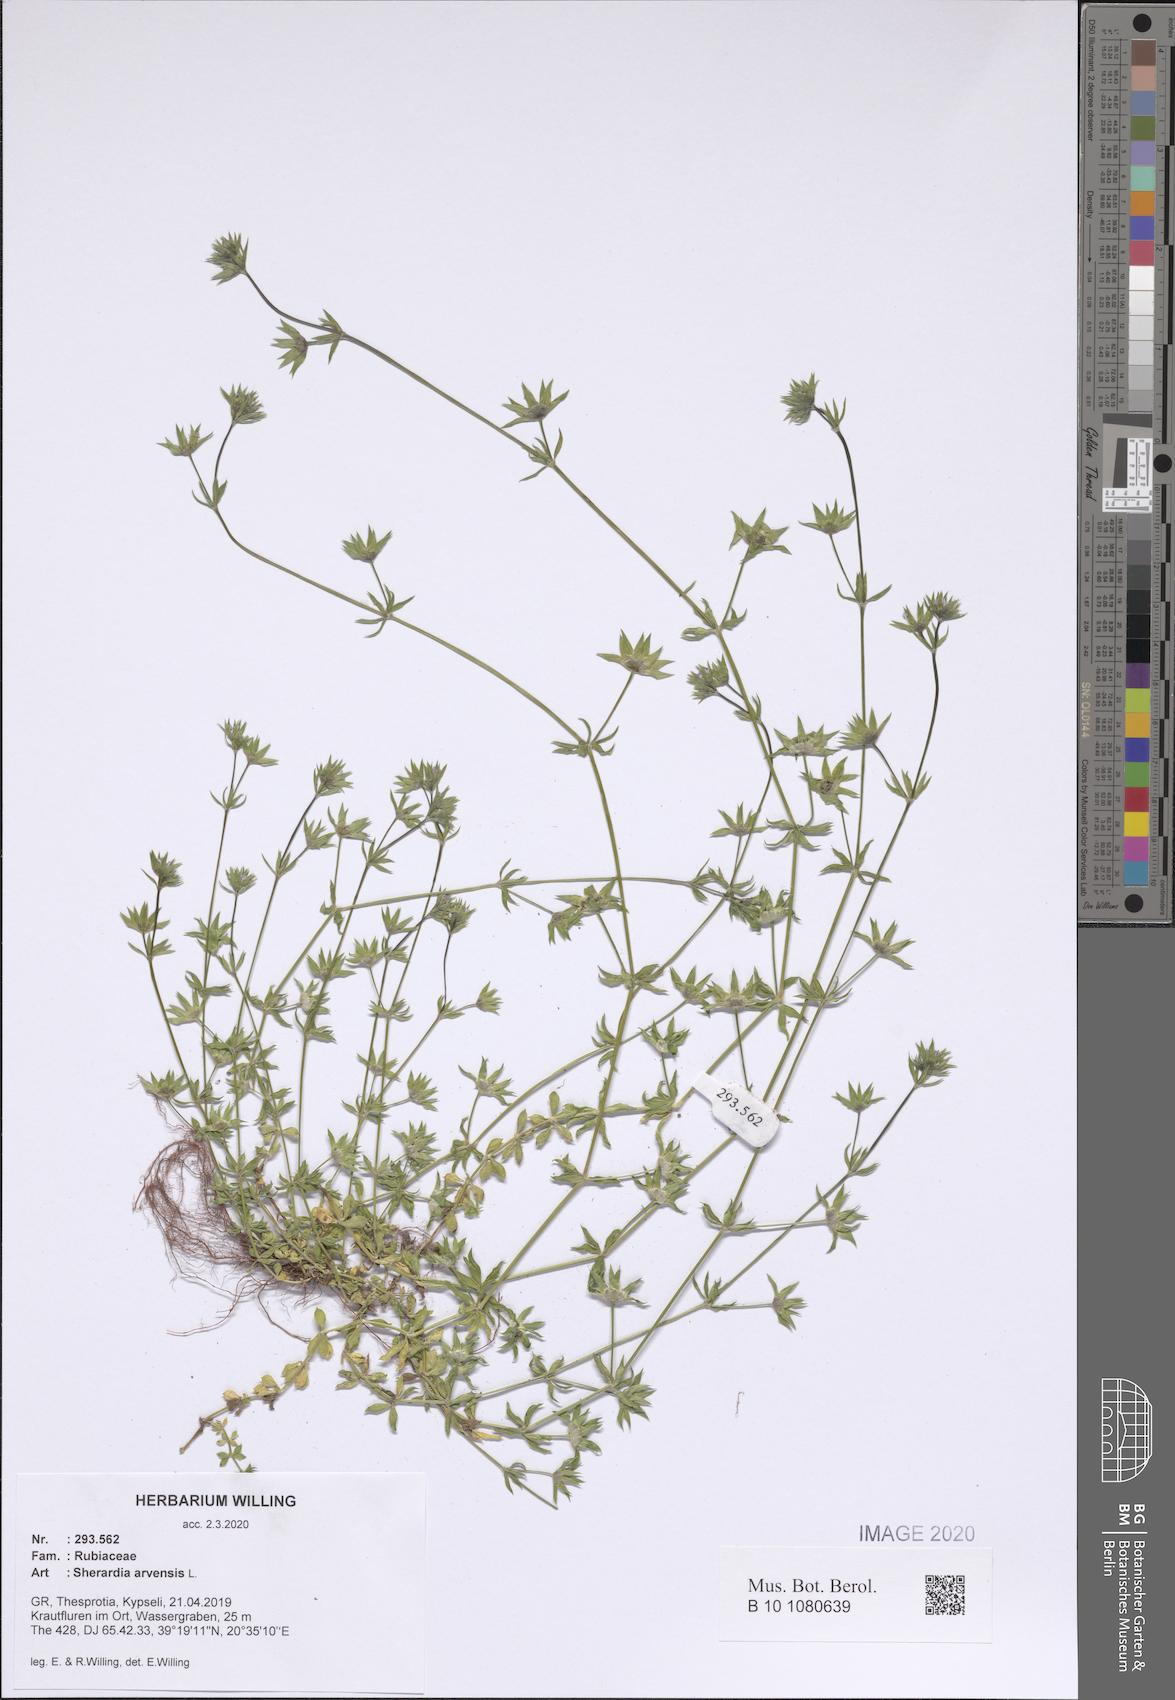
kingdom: Plantae
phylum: Tracheophyta
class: Magnoliopsida
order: Gentianales
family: Rubiaceae
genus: Sherardia
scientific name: Sherardia arvensis
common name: Field madder
